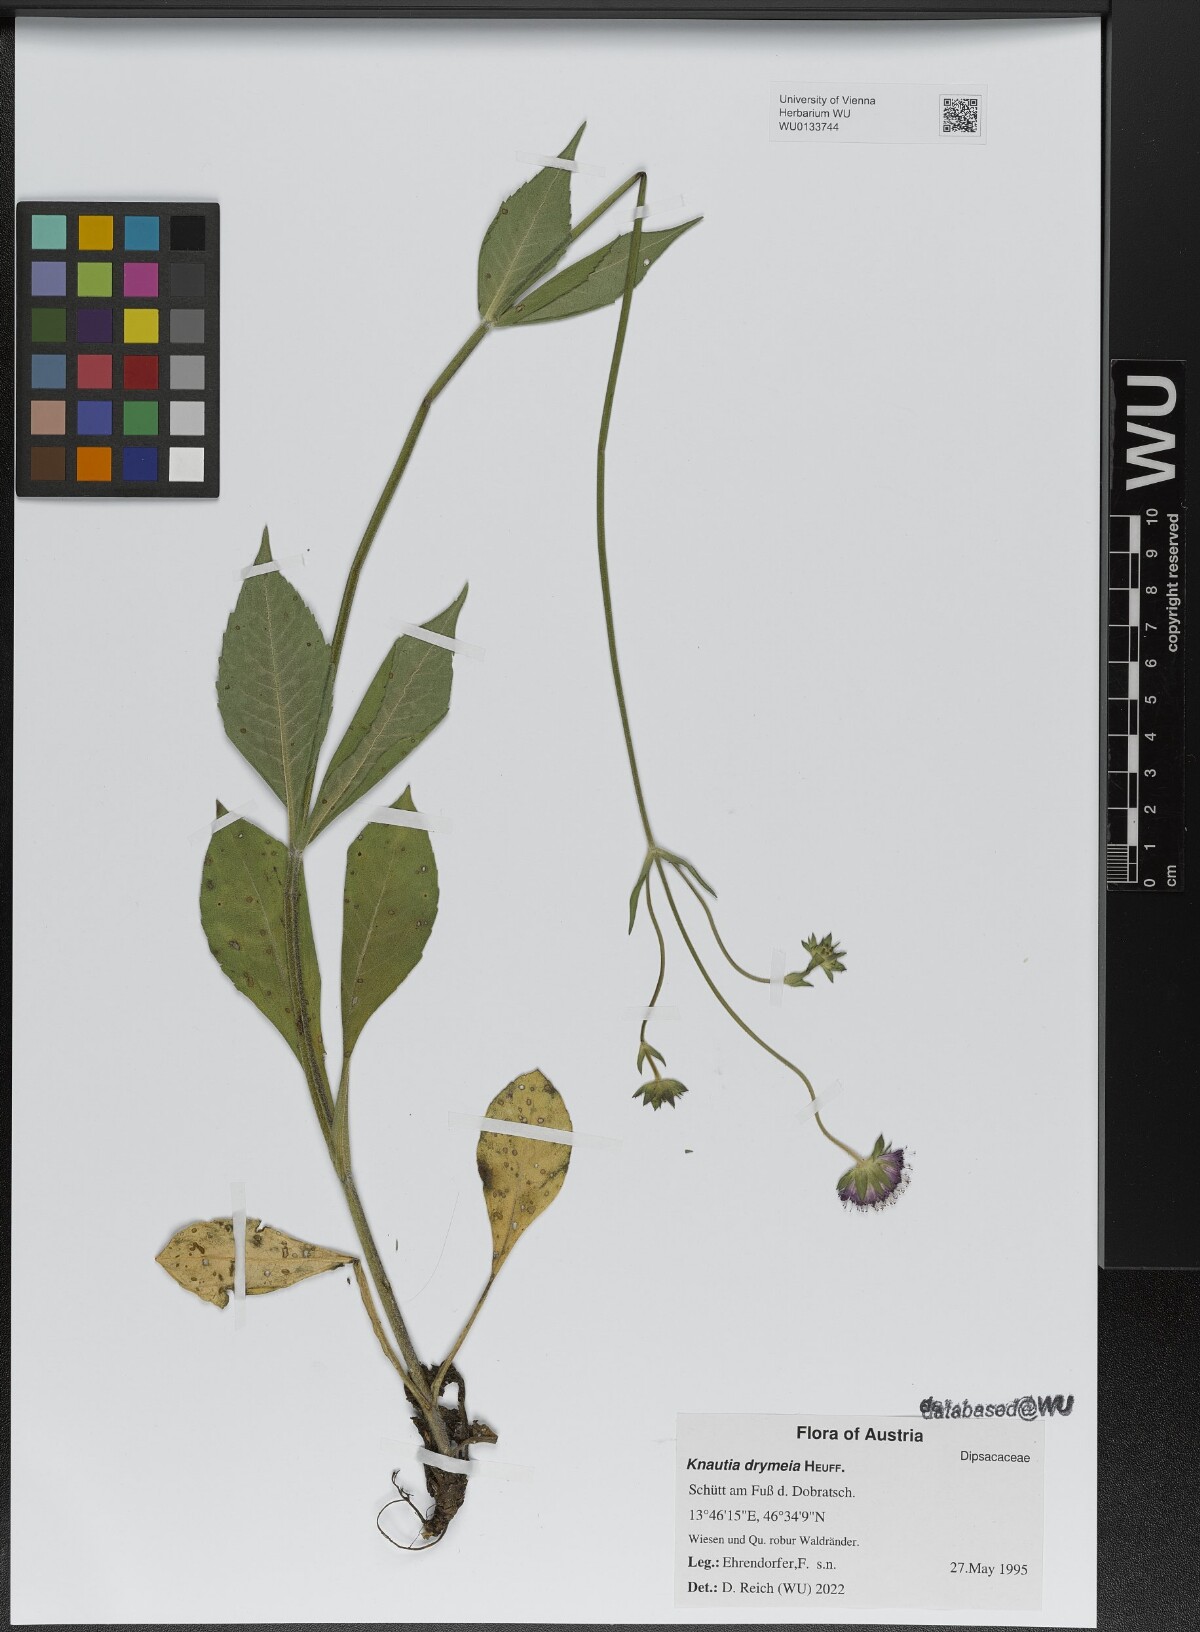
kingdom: Plantae
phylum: Tracheophyta
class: Magnoliopsida
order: Dipsacales
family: Caprifoliaceae
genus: Knautia
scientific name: Knautia drymeia
